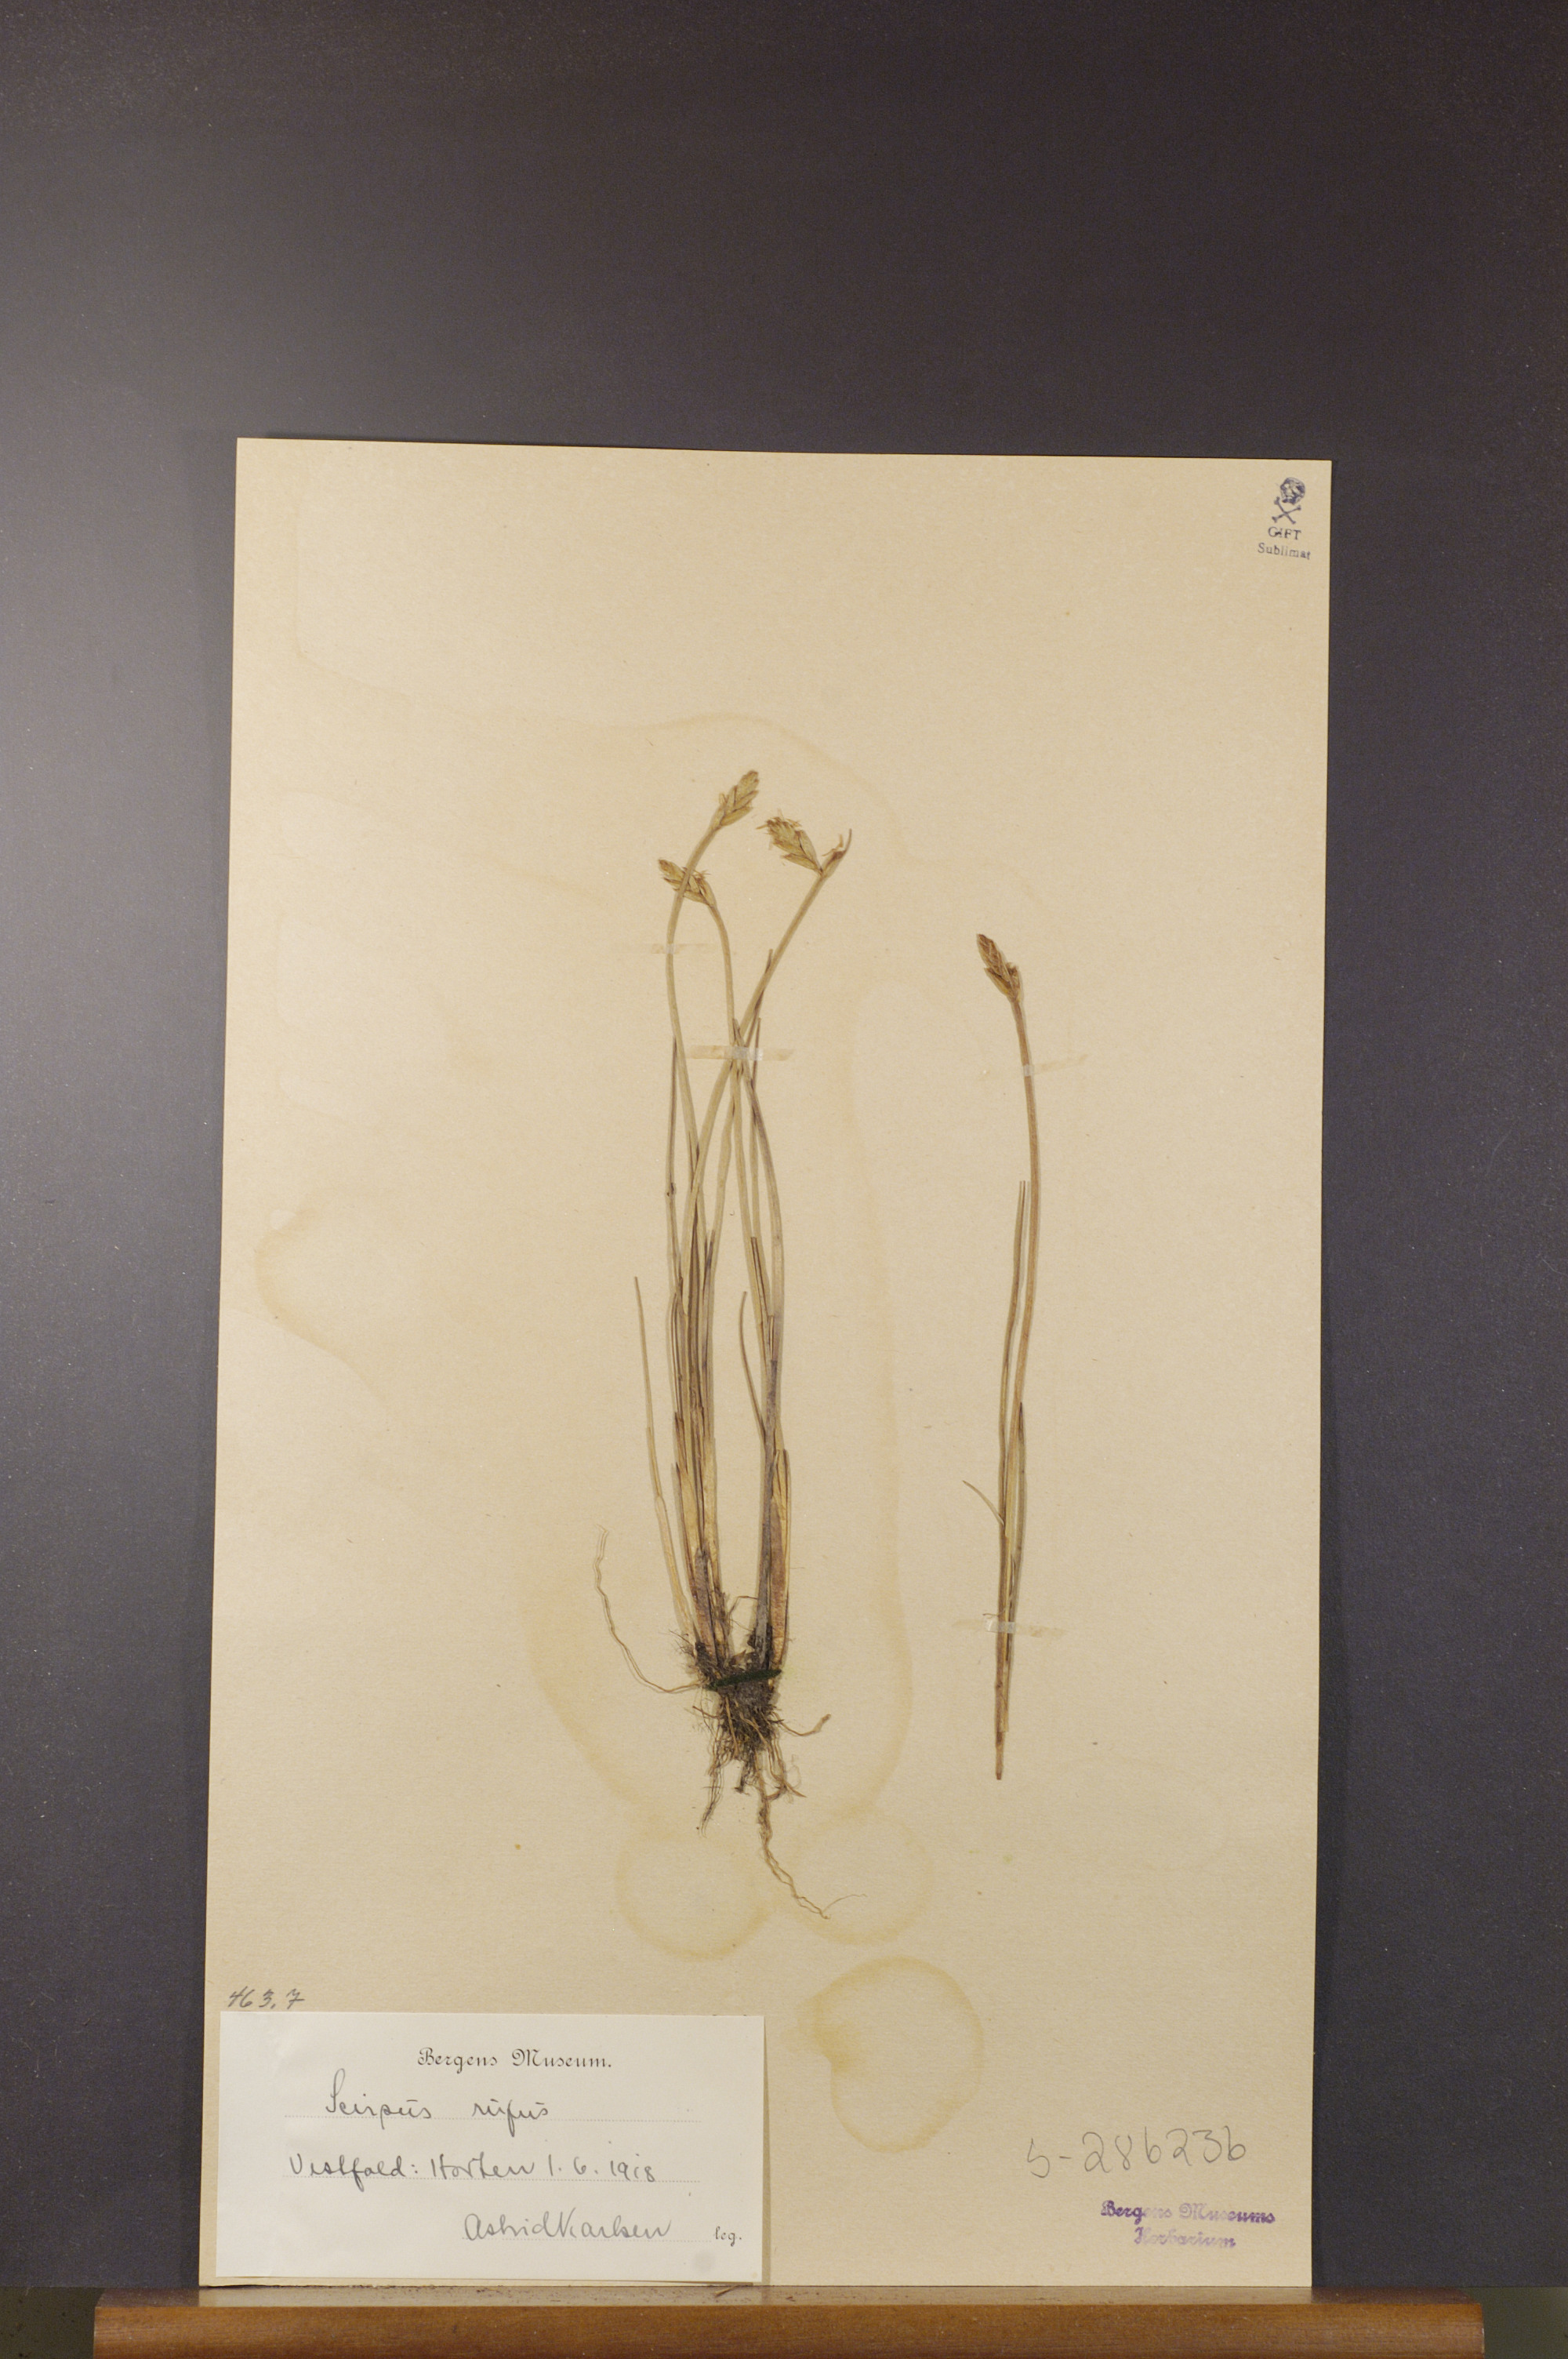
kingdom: Plantae
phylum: Tracheophyta
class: Liliopsida
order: Poales
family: Cyperaceae
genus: Blysmus
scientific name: Blysmus rufus
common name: Saltmarsh flat-sedge
